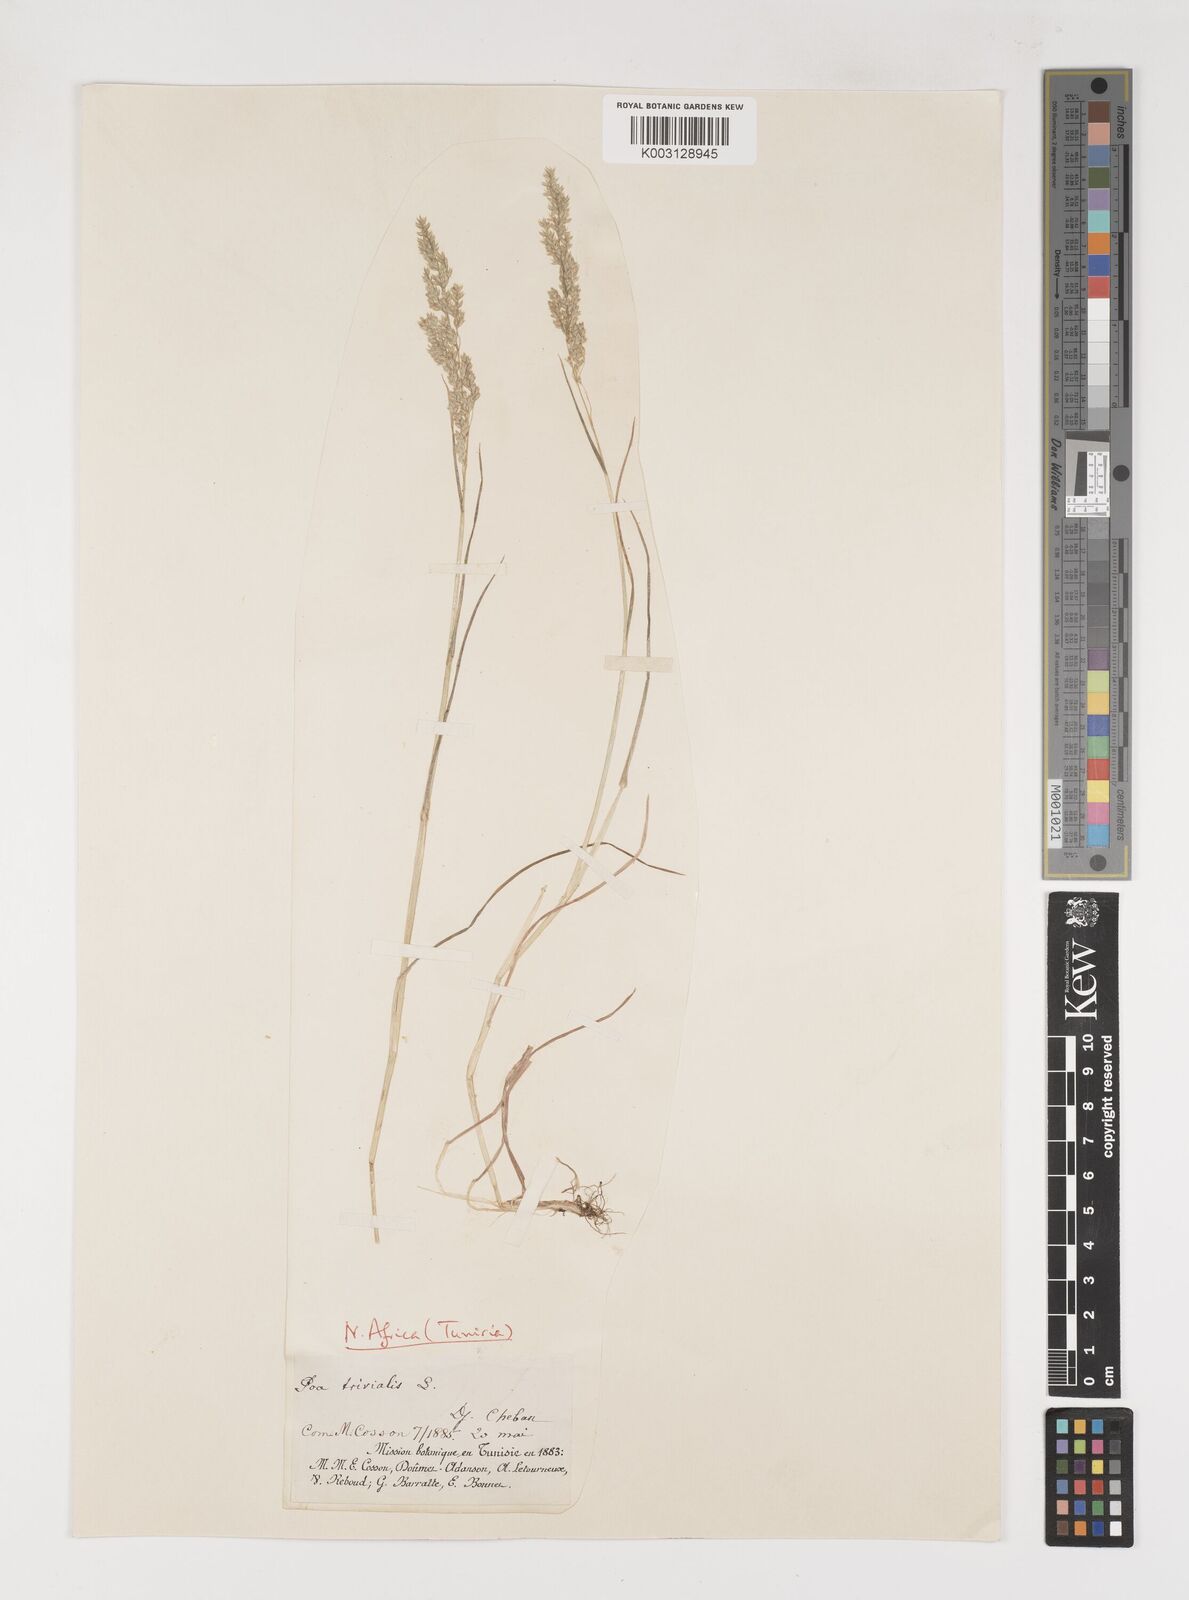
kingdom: Plantae
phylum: Tracheophyta
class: Liliopsida
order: Poales
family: Poaceae
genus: Poa
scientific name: Poa trivialis
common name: Rough bluegrass
